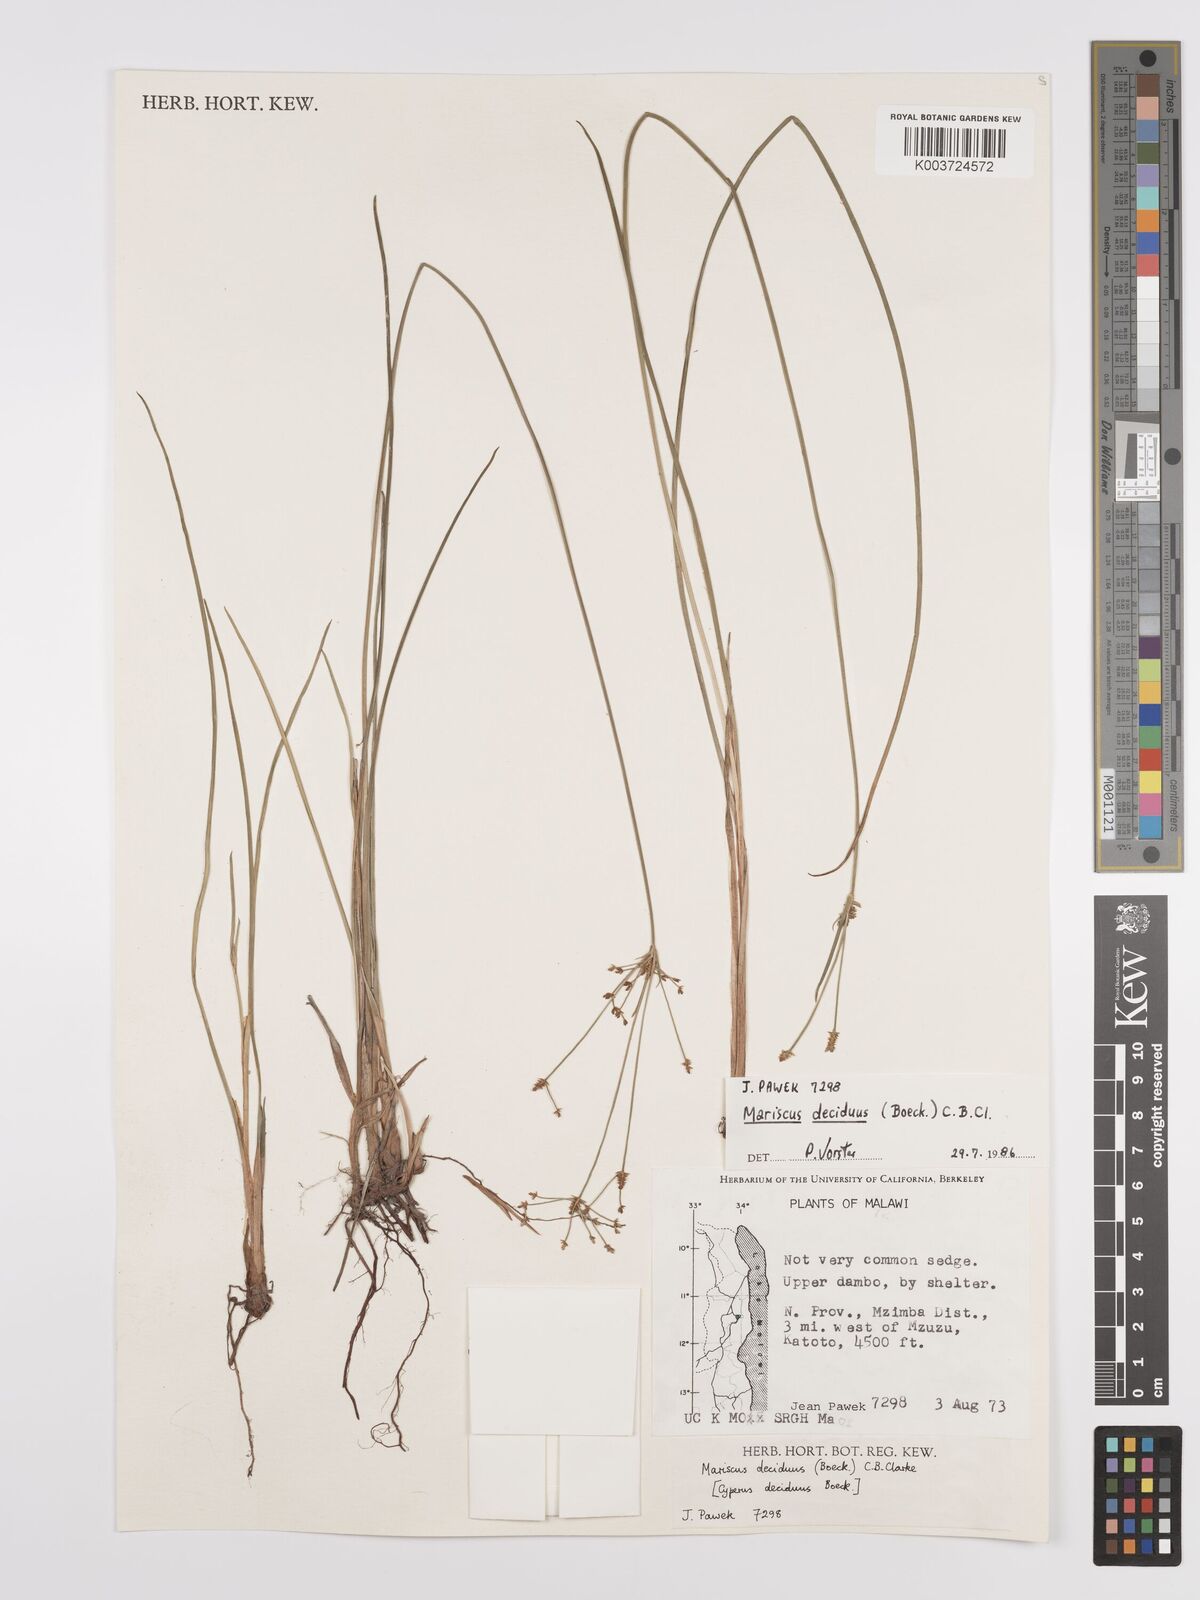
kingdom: Plantae
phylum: Tracheophyta
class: Liliopsida
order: Poales
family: Cyperaceae
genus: Cyperus
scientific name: Cyperus deciduus
